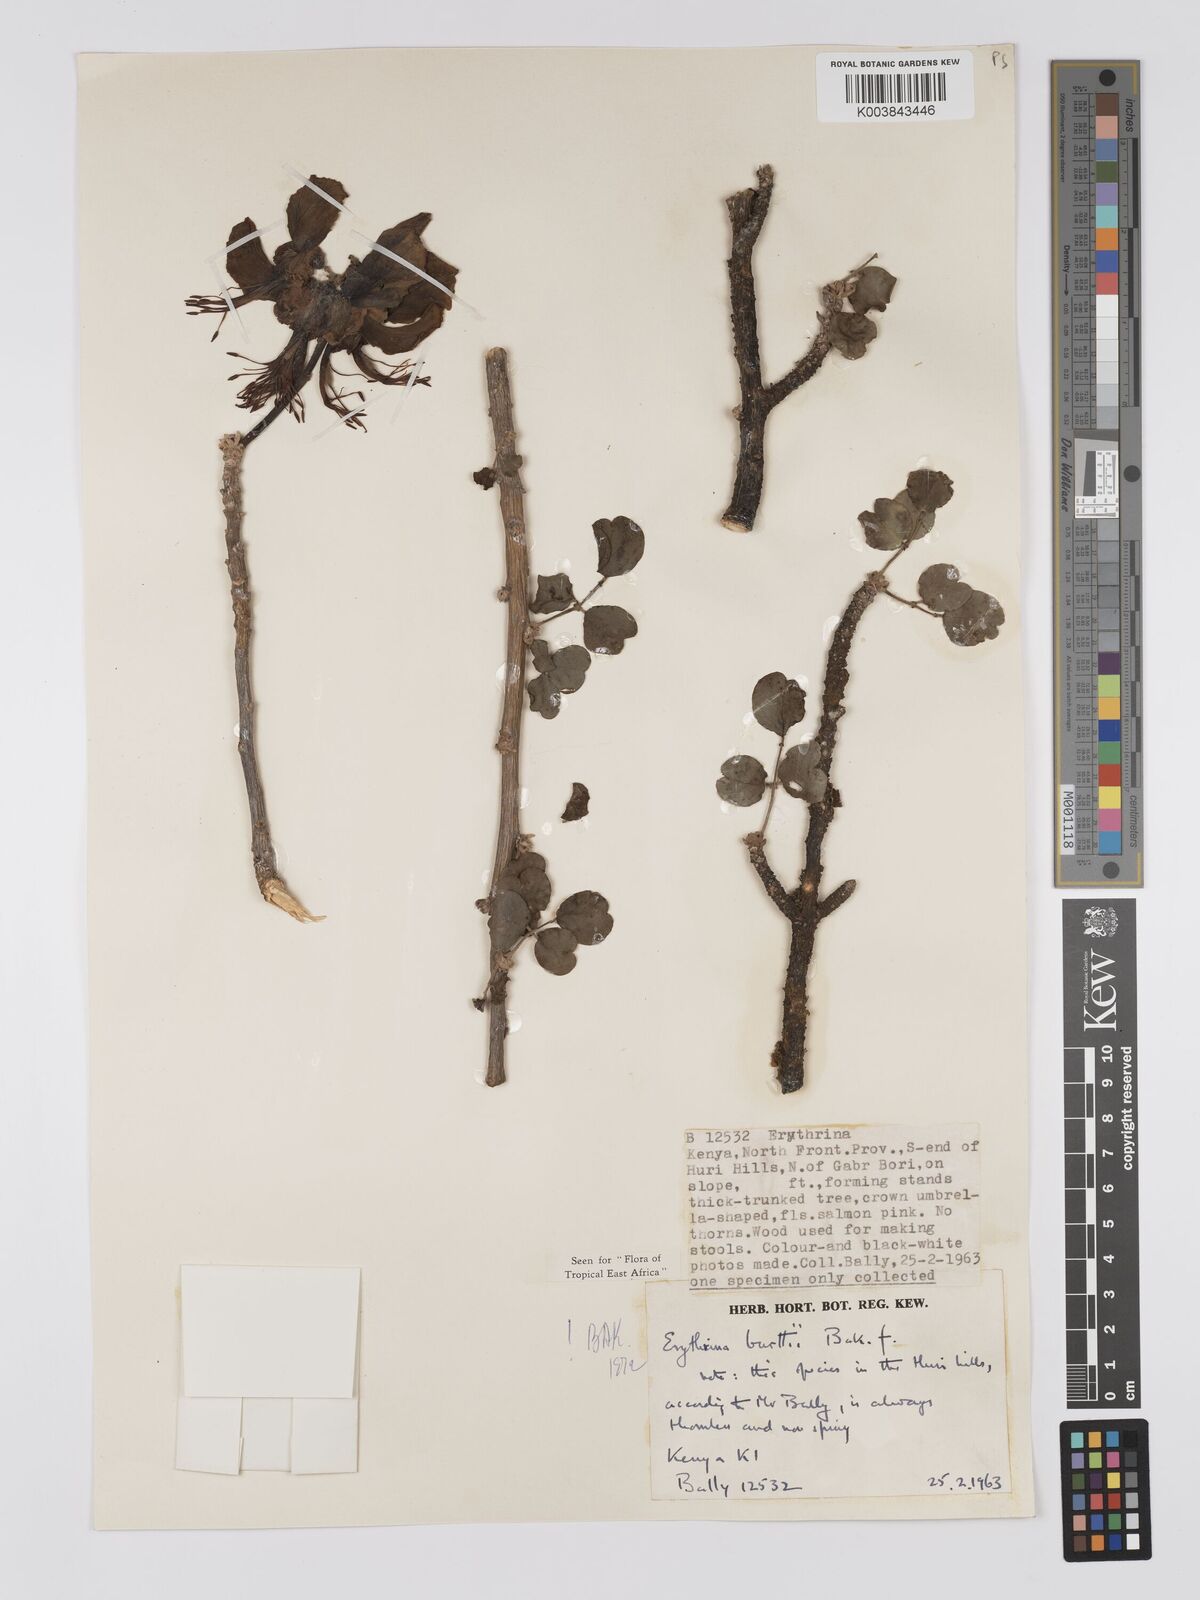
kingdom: Plantae
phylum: Tracheophyta
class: Magnoliopsida
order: Fabales
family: Fabaceae
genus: Erythrina
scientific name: Erythrina burttii
